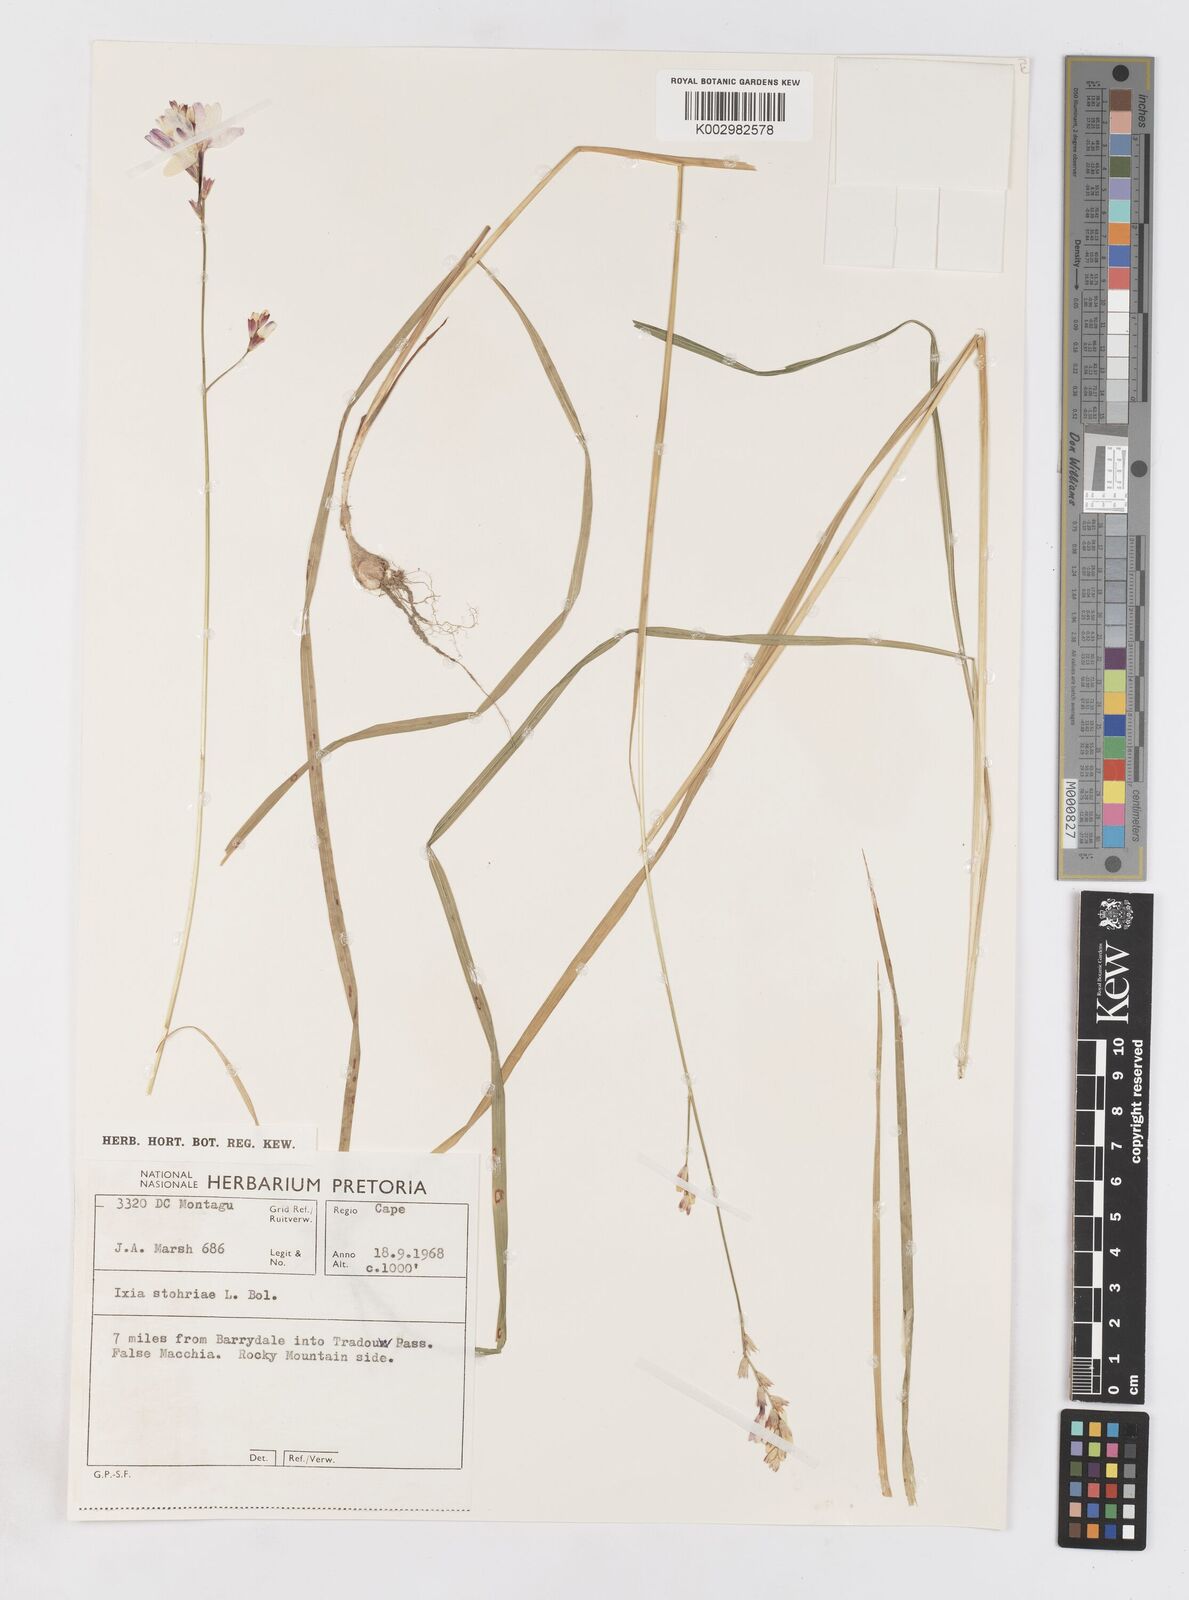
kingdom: Plantae
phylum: Tracheophyta
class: Liliopsida
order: Asparagales
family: Iridaceae
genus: Ixia
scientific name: Ixia stohriae
